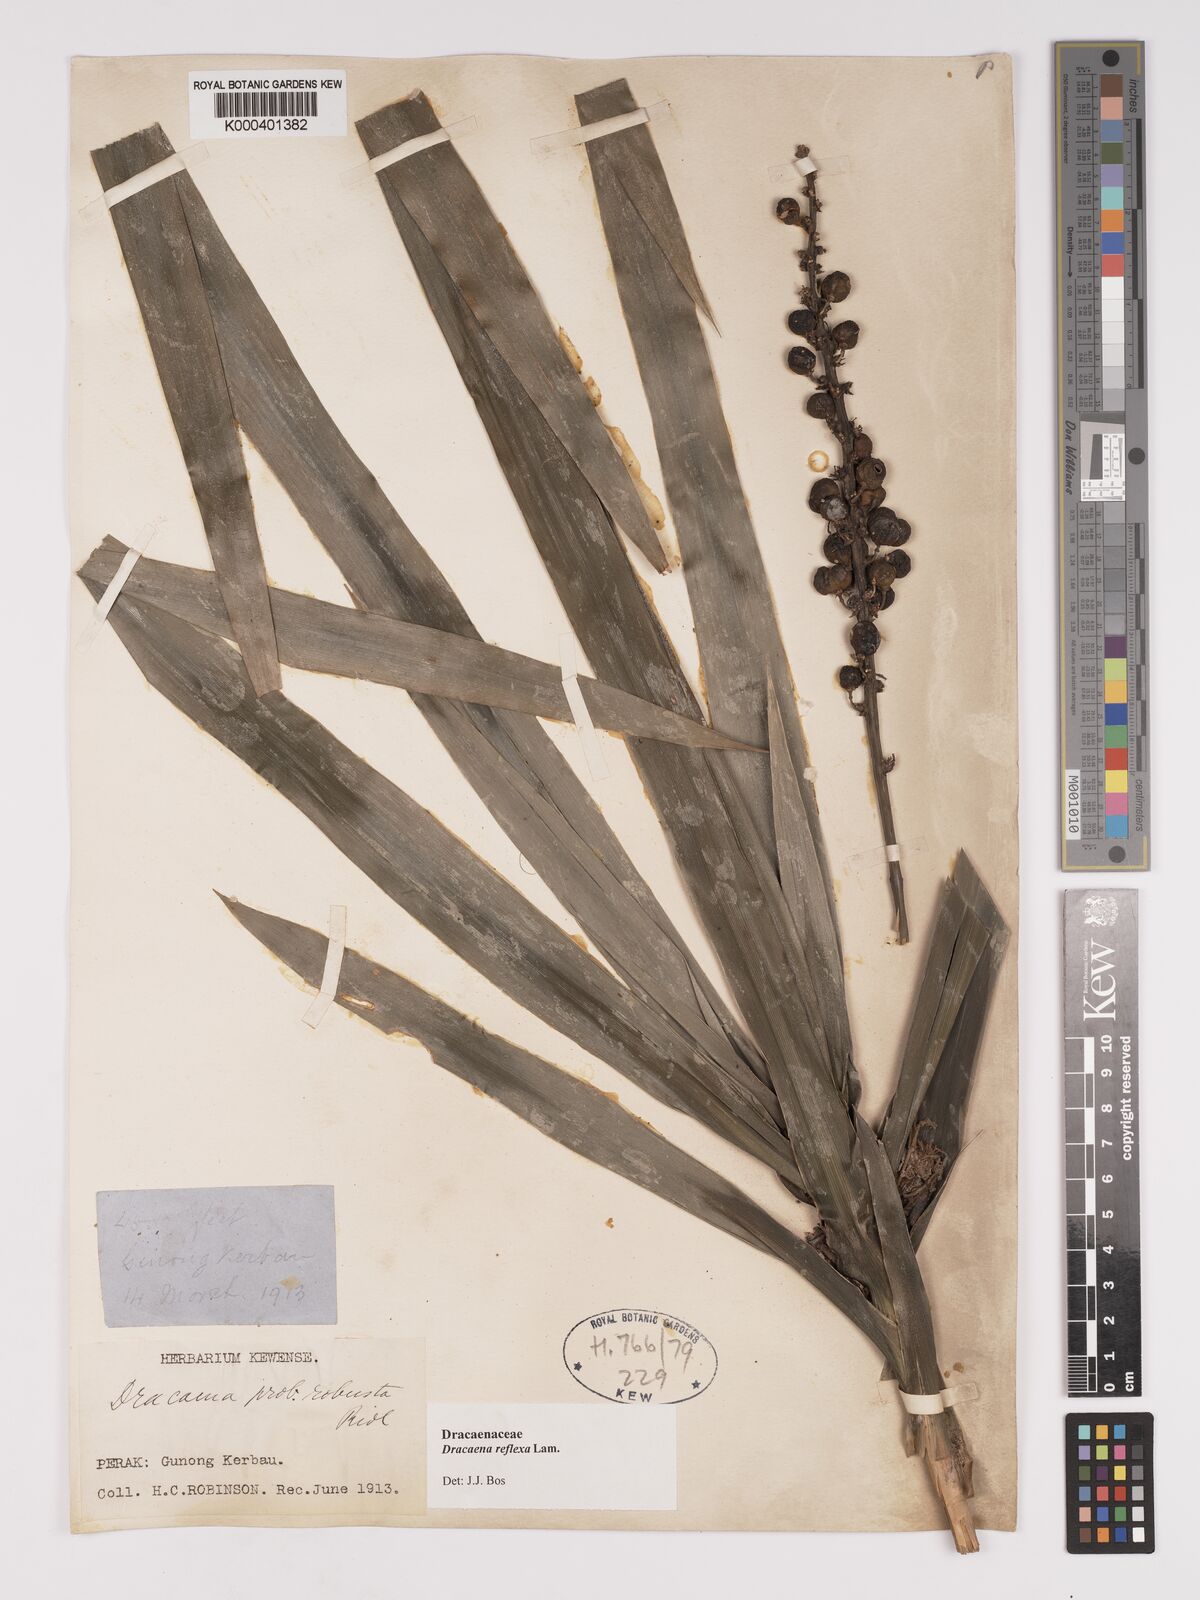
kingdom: Plantae
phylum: Tracheophyta
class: Liliopsida
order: Asparagales
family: Asparagaceae
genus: Dracaena
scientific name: Dracaena reflexa
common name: Song-of-india
